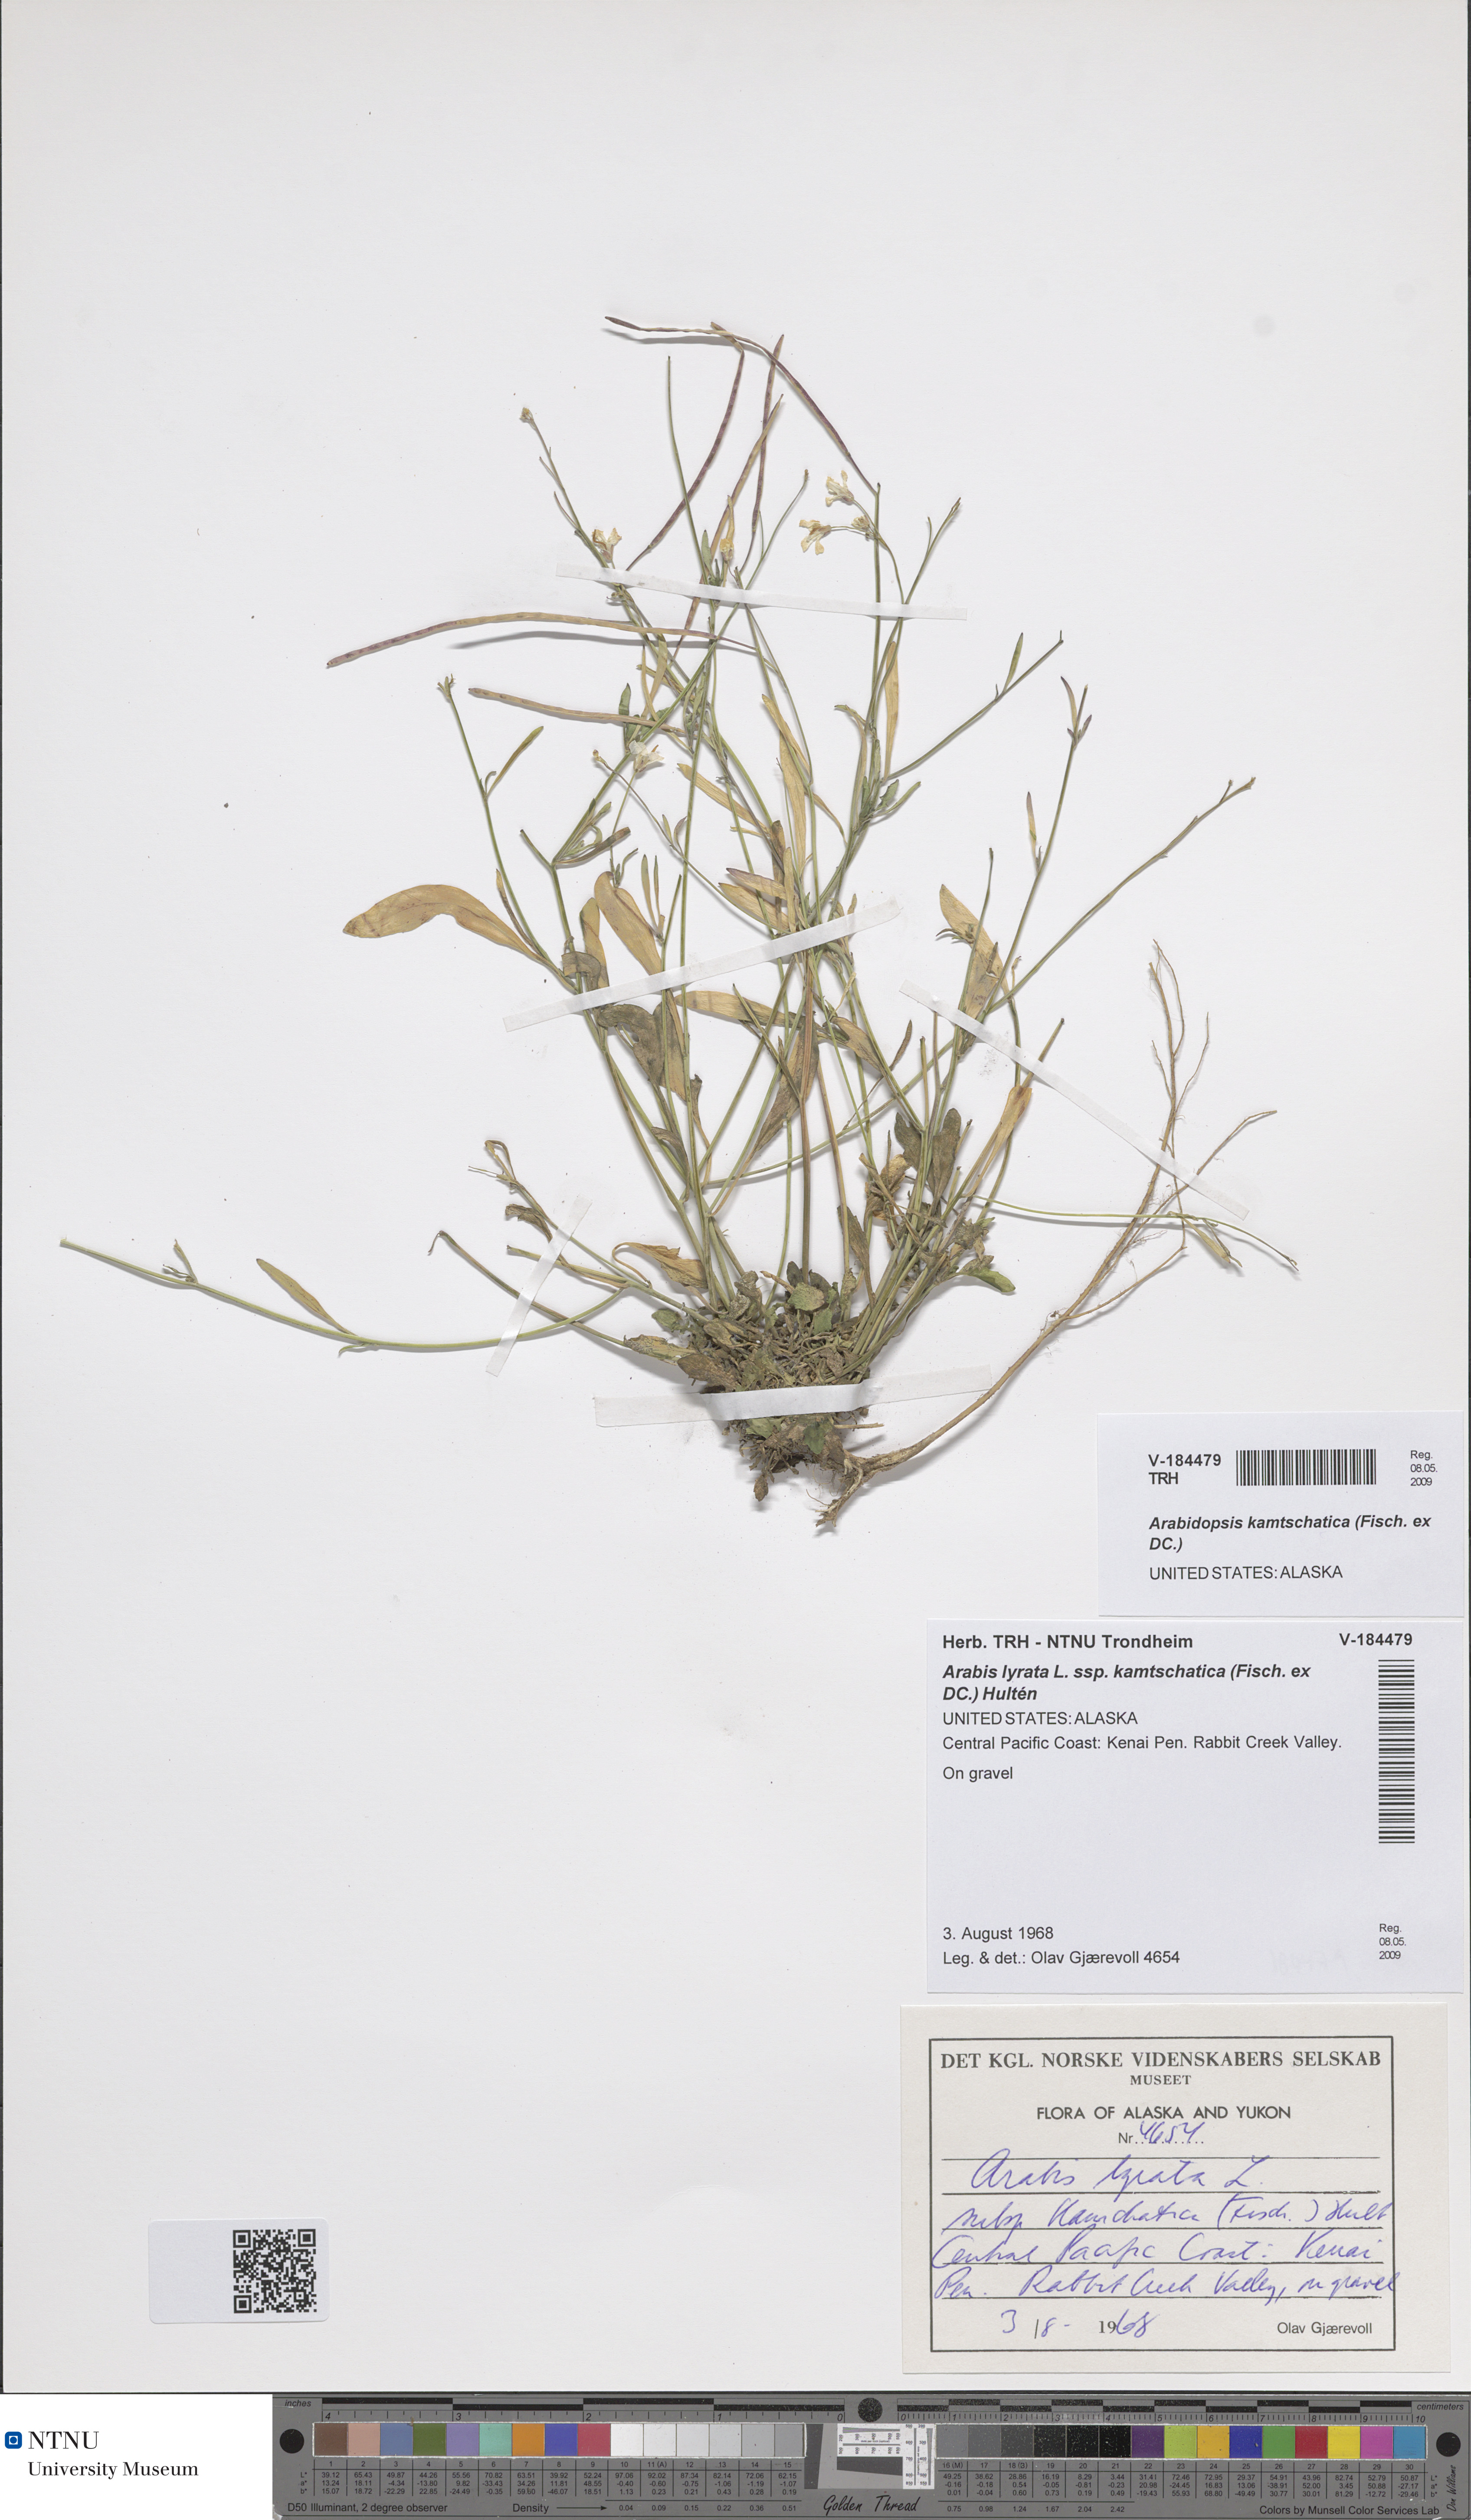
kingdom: Plantae
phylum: Tracheophyta
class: Magnoliopsida
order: Brassicales
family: Brassicaceae
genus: Arabidopsis
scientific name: Arabidopsis lyrata
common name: Lyrate rockcress
